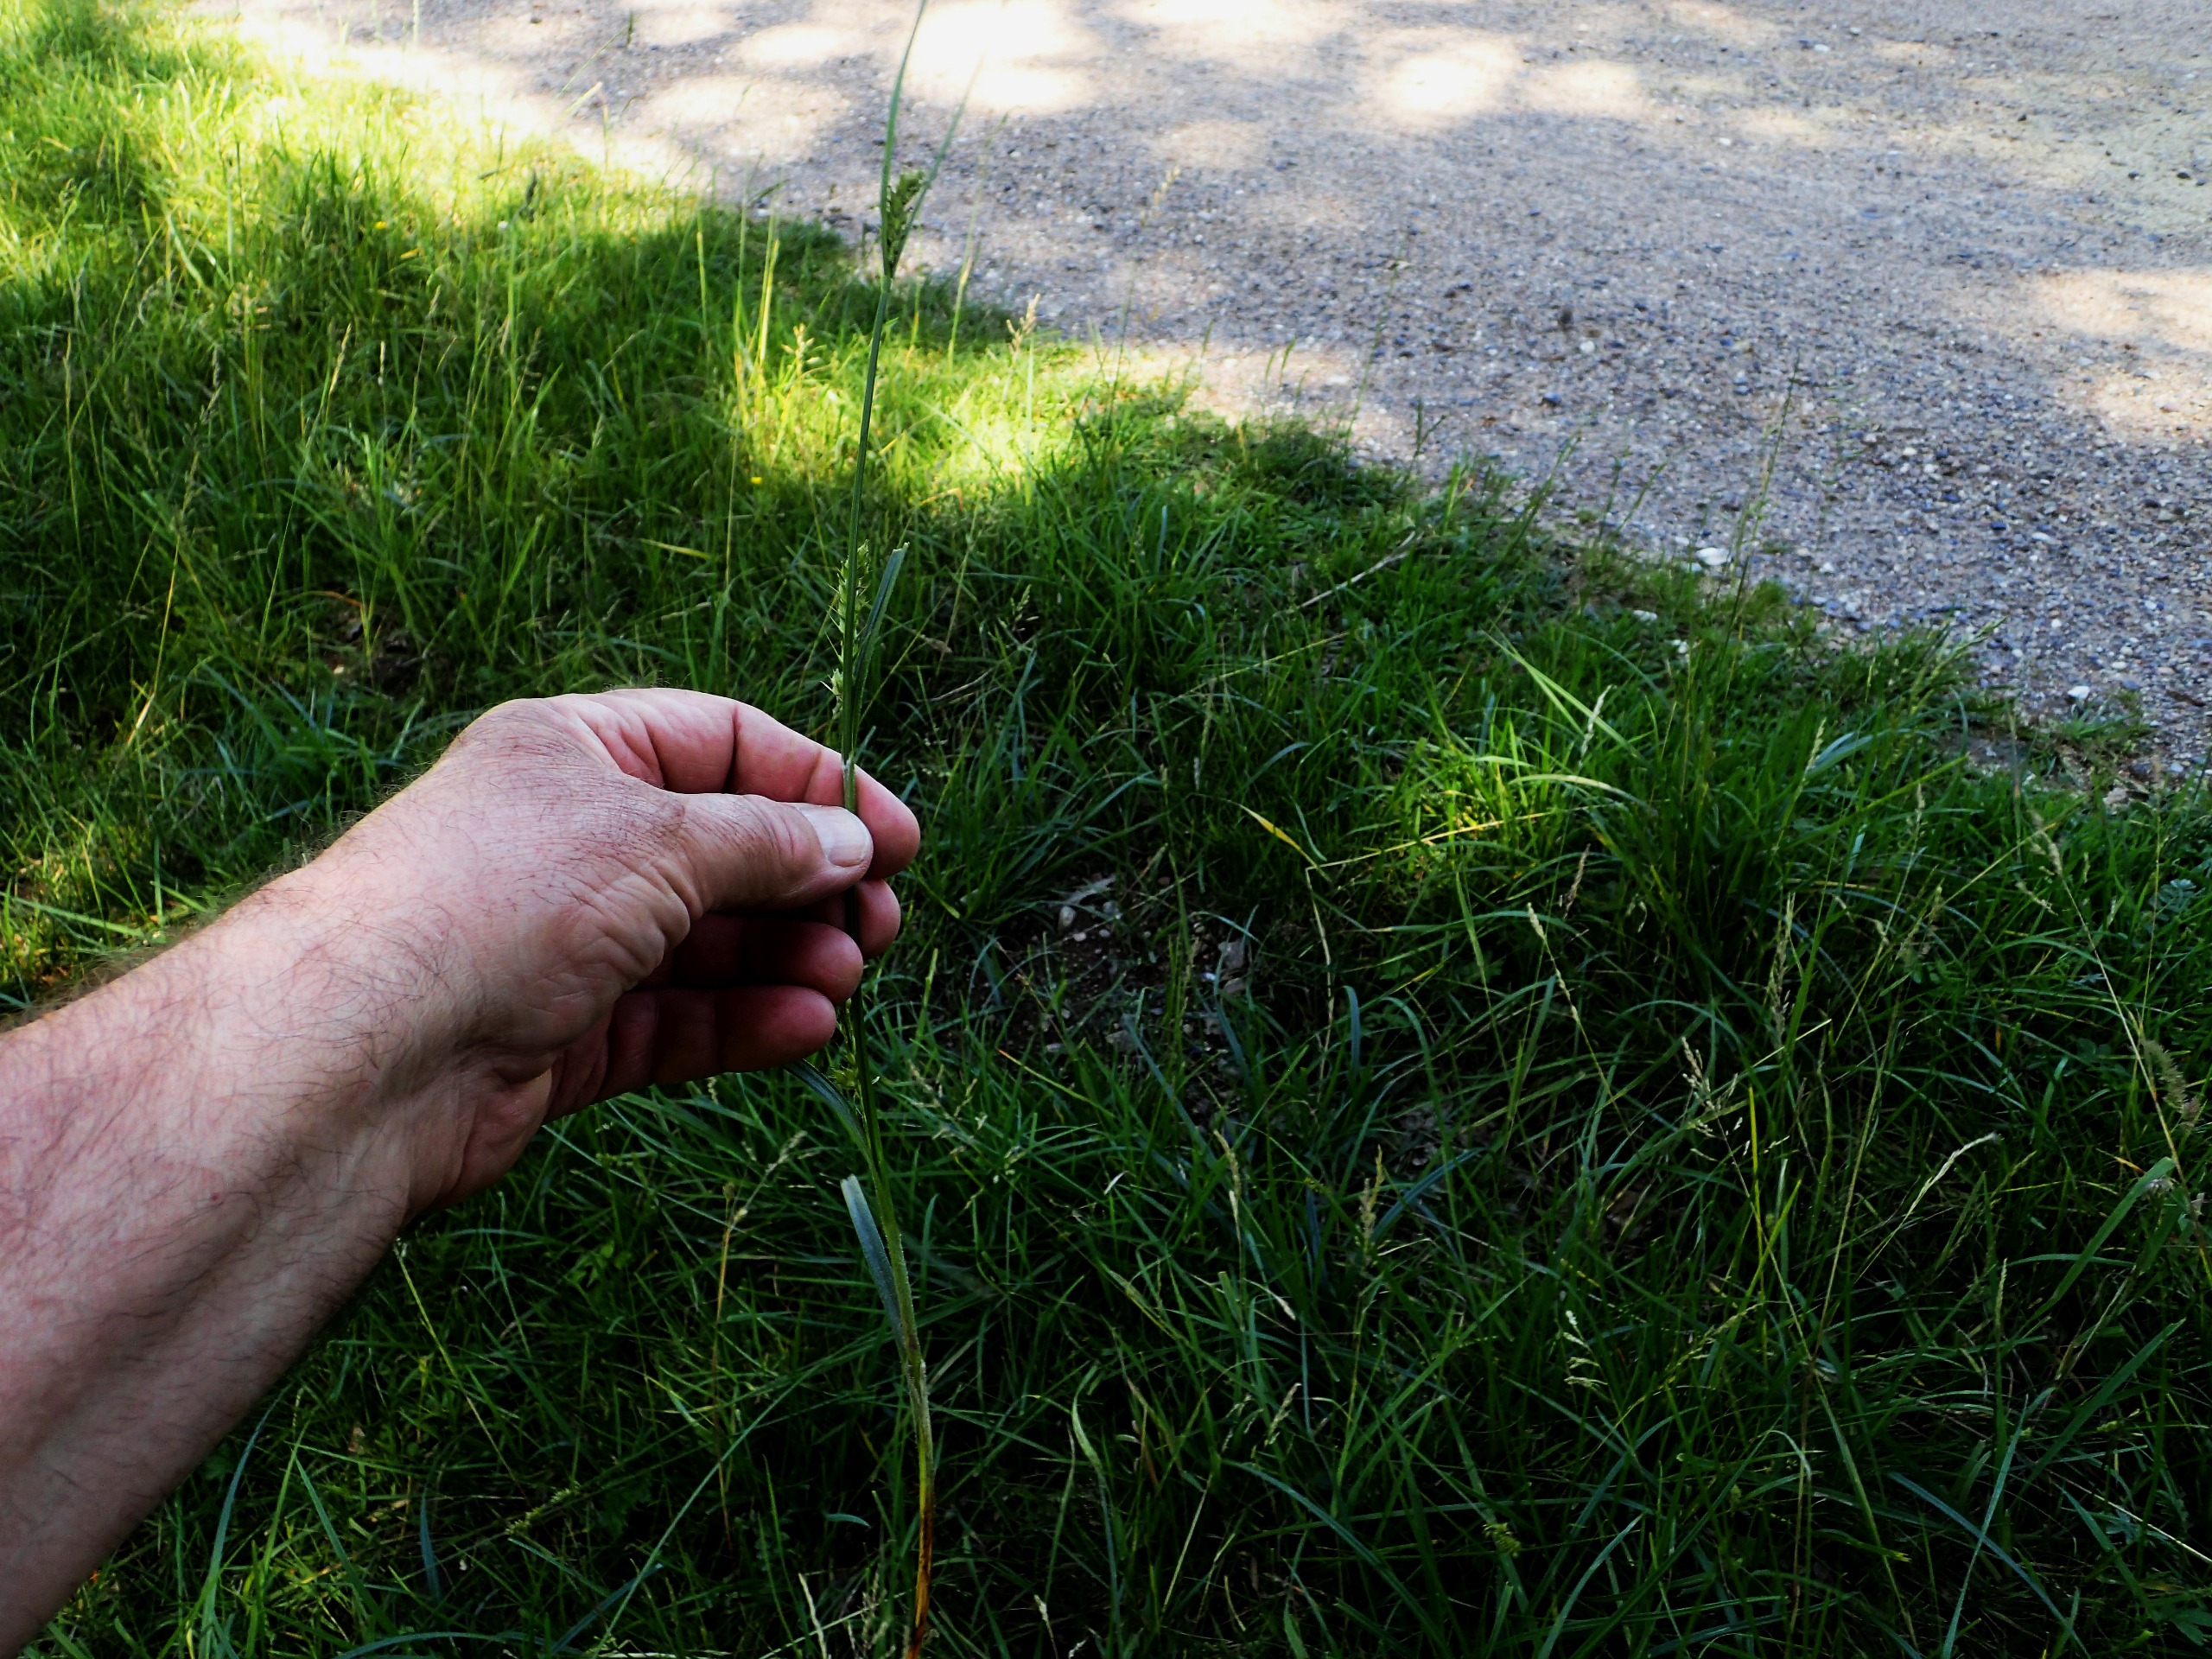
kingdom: Plantae
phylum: Tracheophyta
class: Liliopsida
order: Poales
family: Cyperaceae
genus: Carex
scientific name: Carex hirta
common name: Håret star
